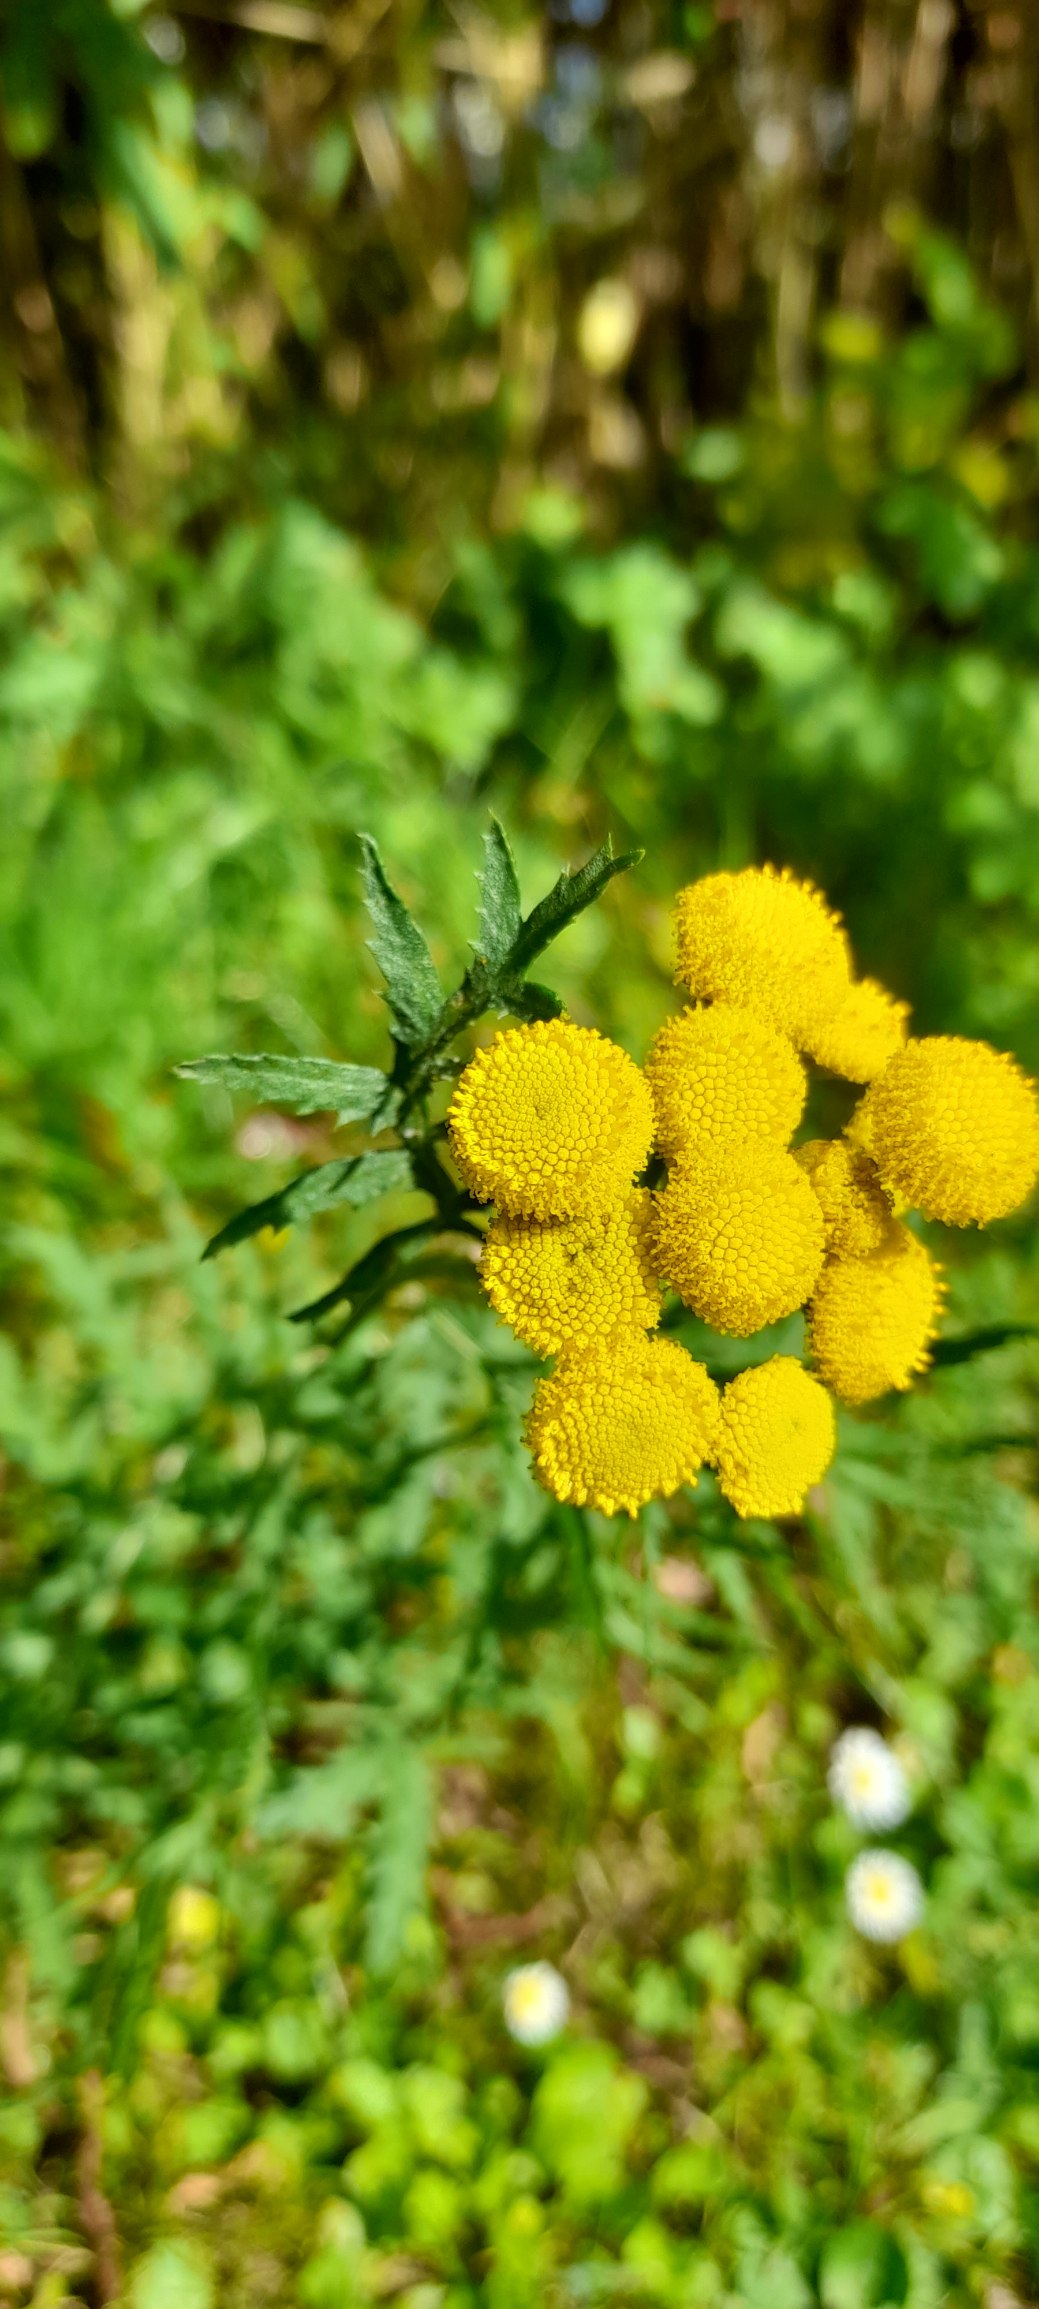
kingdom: Plantae
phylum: Tracheophyta
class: Magnoliopsida
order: Asterales
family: Asteraceae
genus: Tanacetum
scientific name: Tanacetum vulgare
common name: Rejnfan
